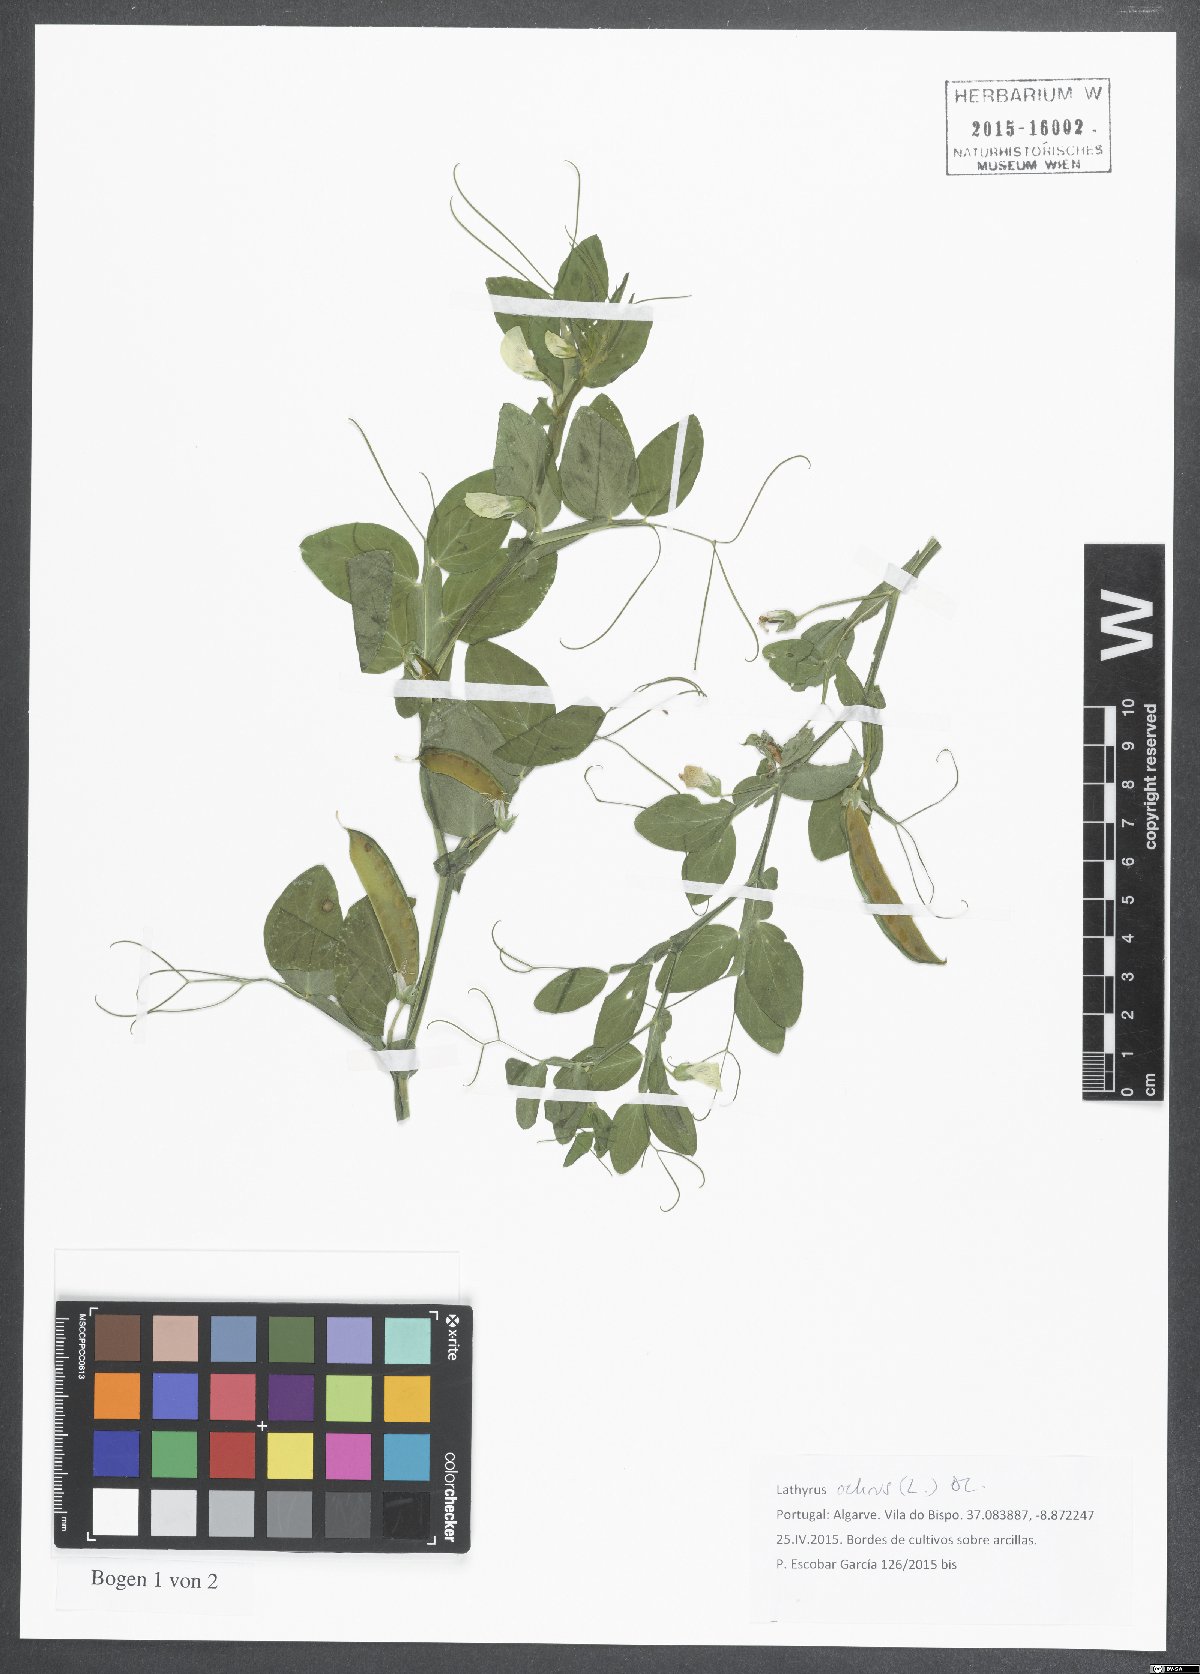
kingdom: Plantae
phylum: Tracheophyta
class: Magnoliopsida
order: Fabales
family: Fabaceae
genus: Lathyrus
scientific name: Lathyrus ochrus
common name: Winged vetchling
